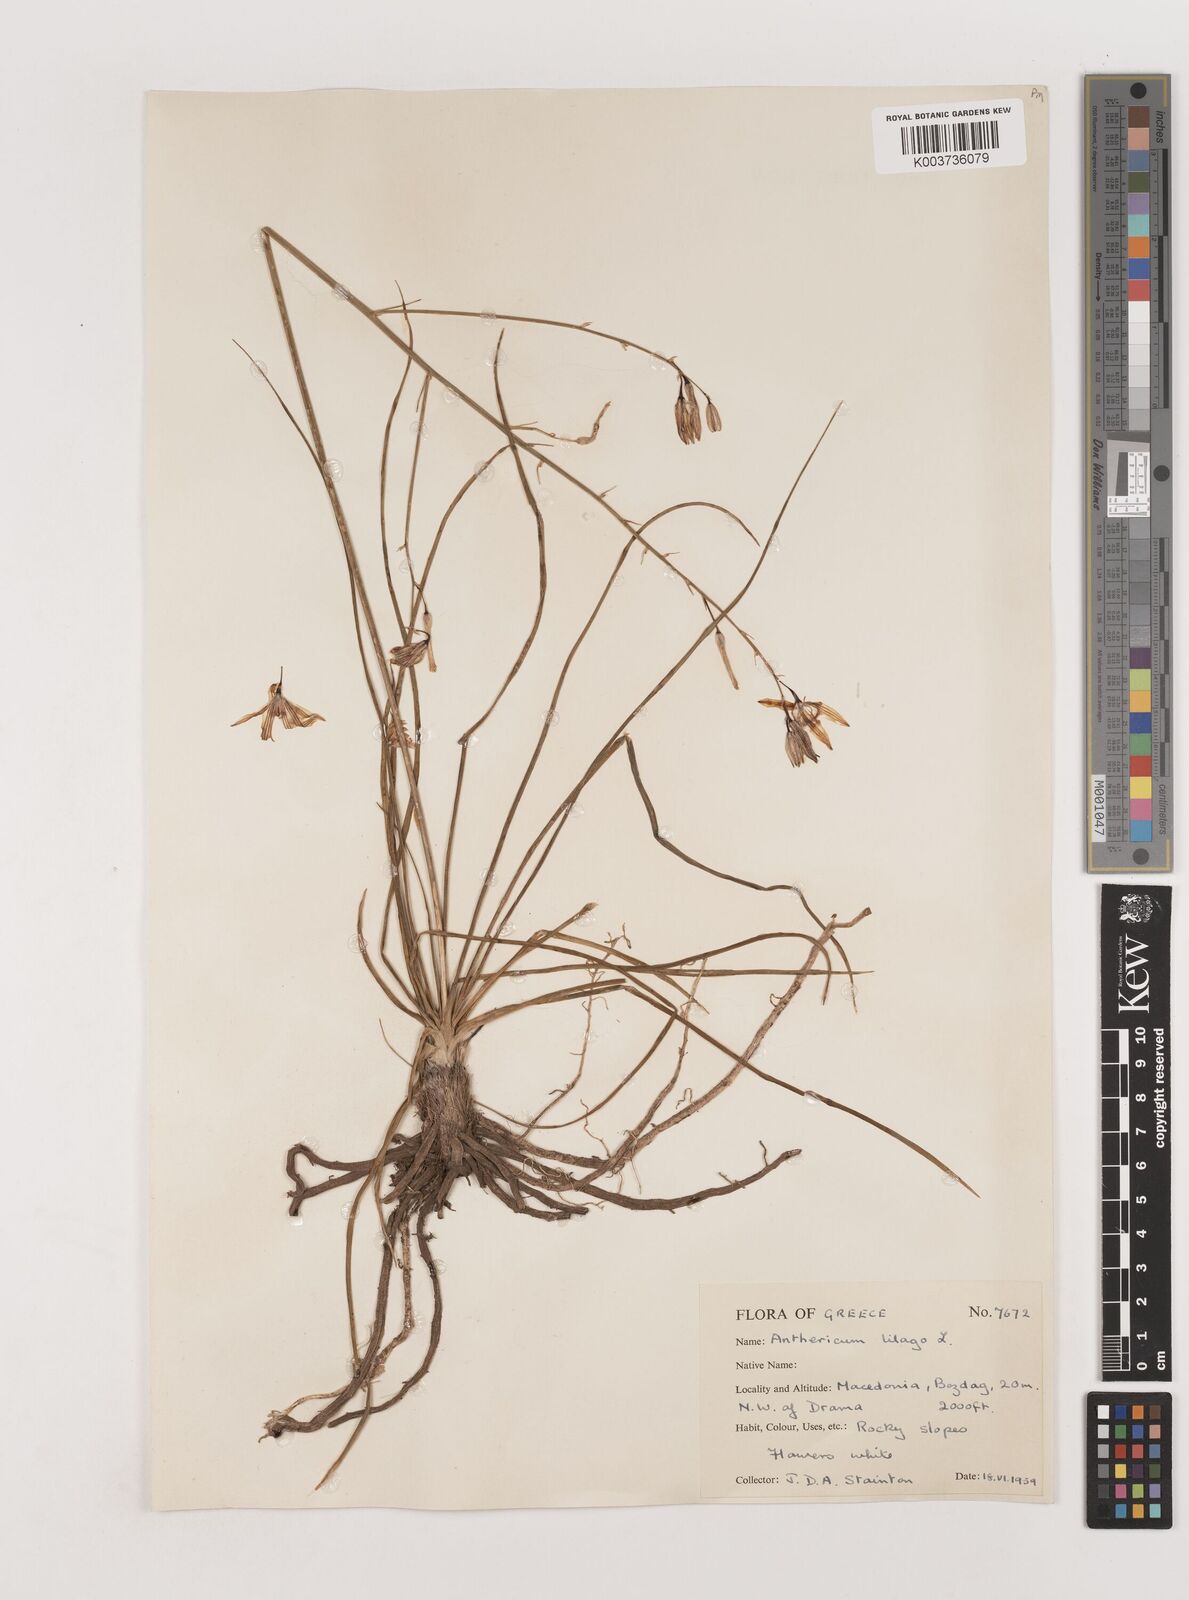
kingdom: Plantae
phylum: Tracheophyta
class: Liliopsida
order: Asparagales
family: Asparagaceae
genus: Anthericum
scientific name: Anthericum liliago
